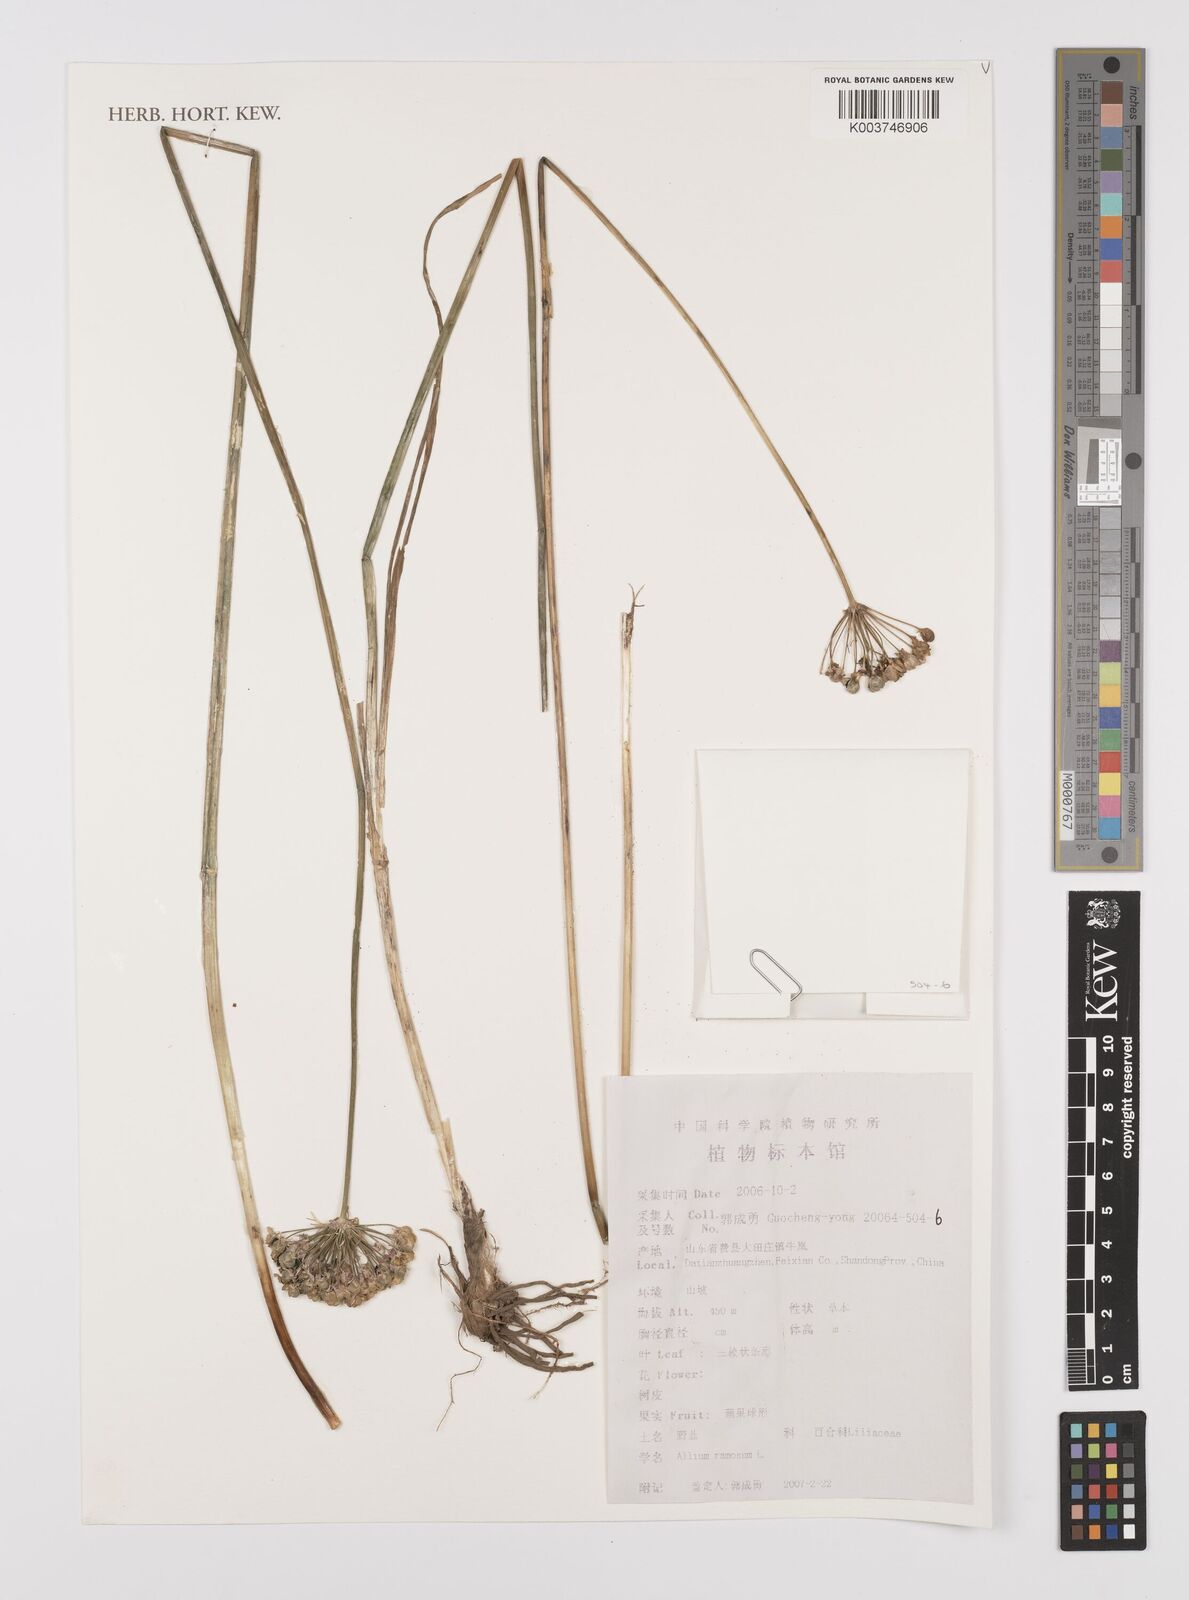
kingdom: Plantae
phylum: Tracheophyta
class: Liliopsida
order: Asparagales
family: Amaryllidaceae
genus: Allium
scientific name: Allium ramosum
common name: Fragrant garlic
